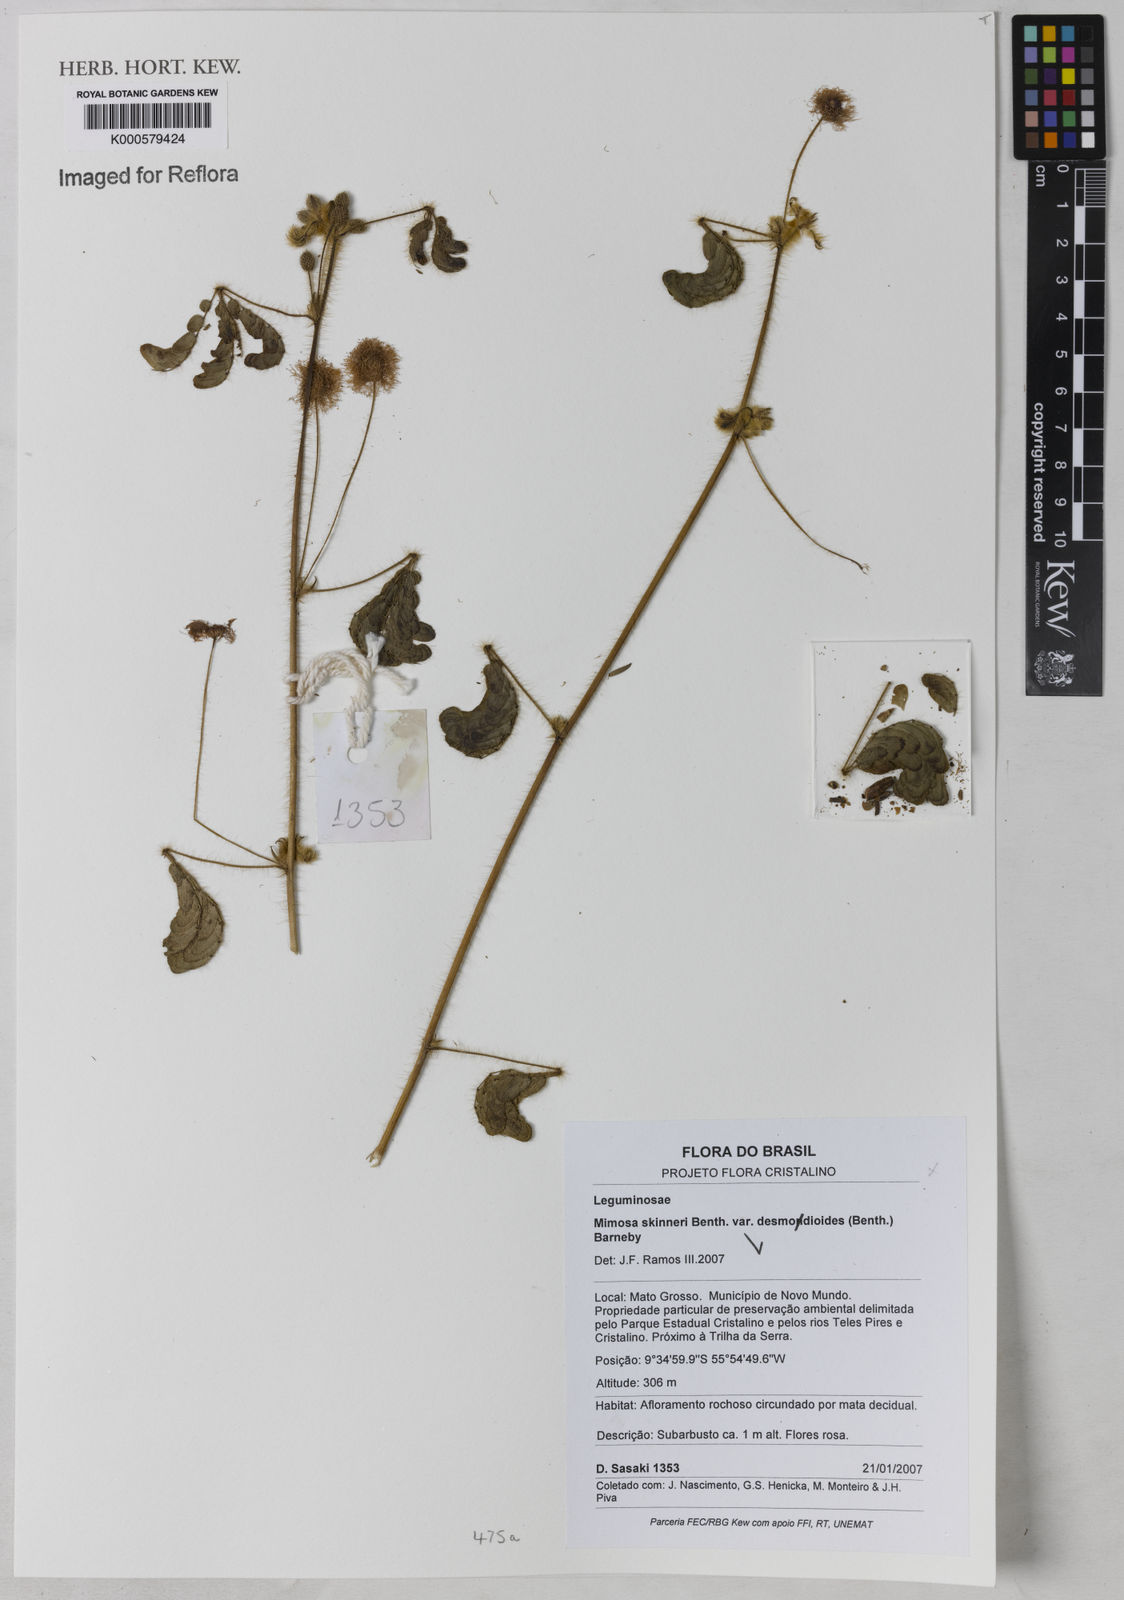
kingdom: Plantae
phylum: Tracheophyta
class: Magnoliopsida
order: Fabales
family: Fabaceae
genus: Mimosa
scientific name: Mimosa skinneri
